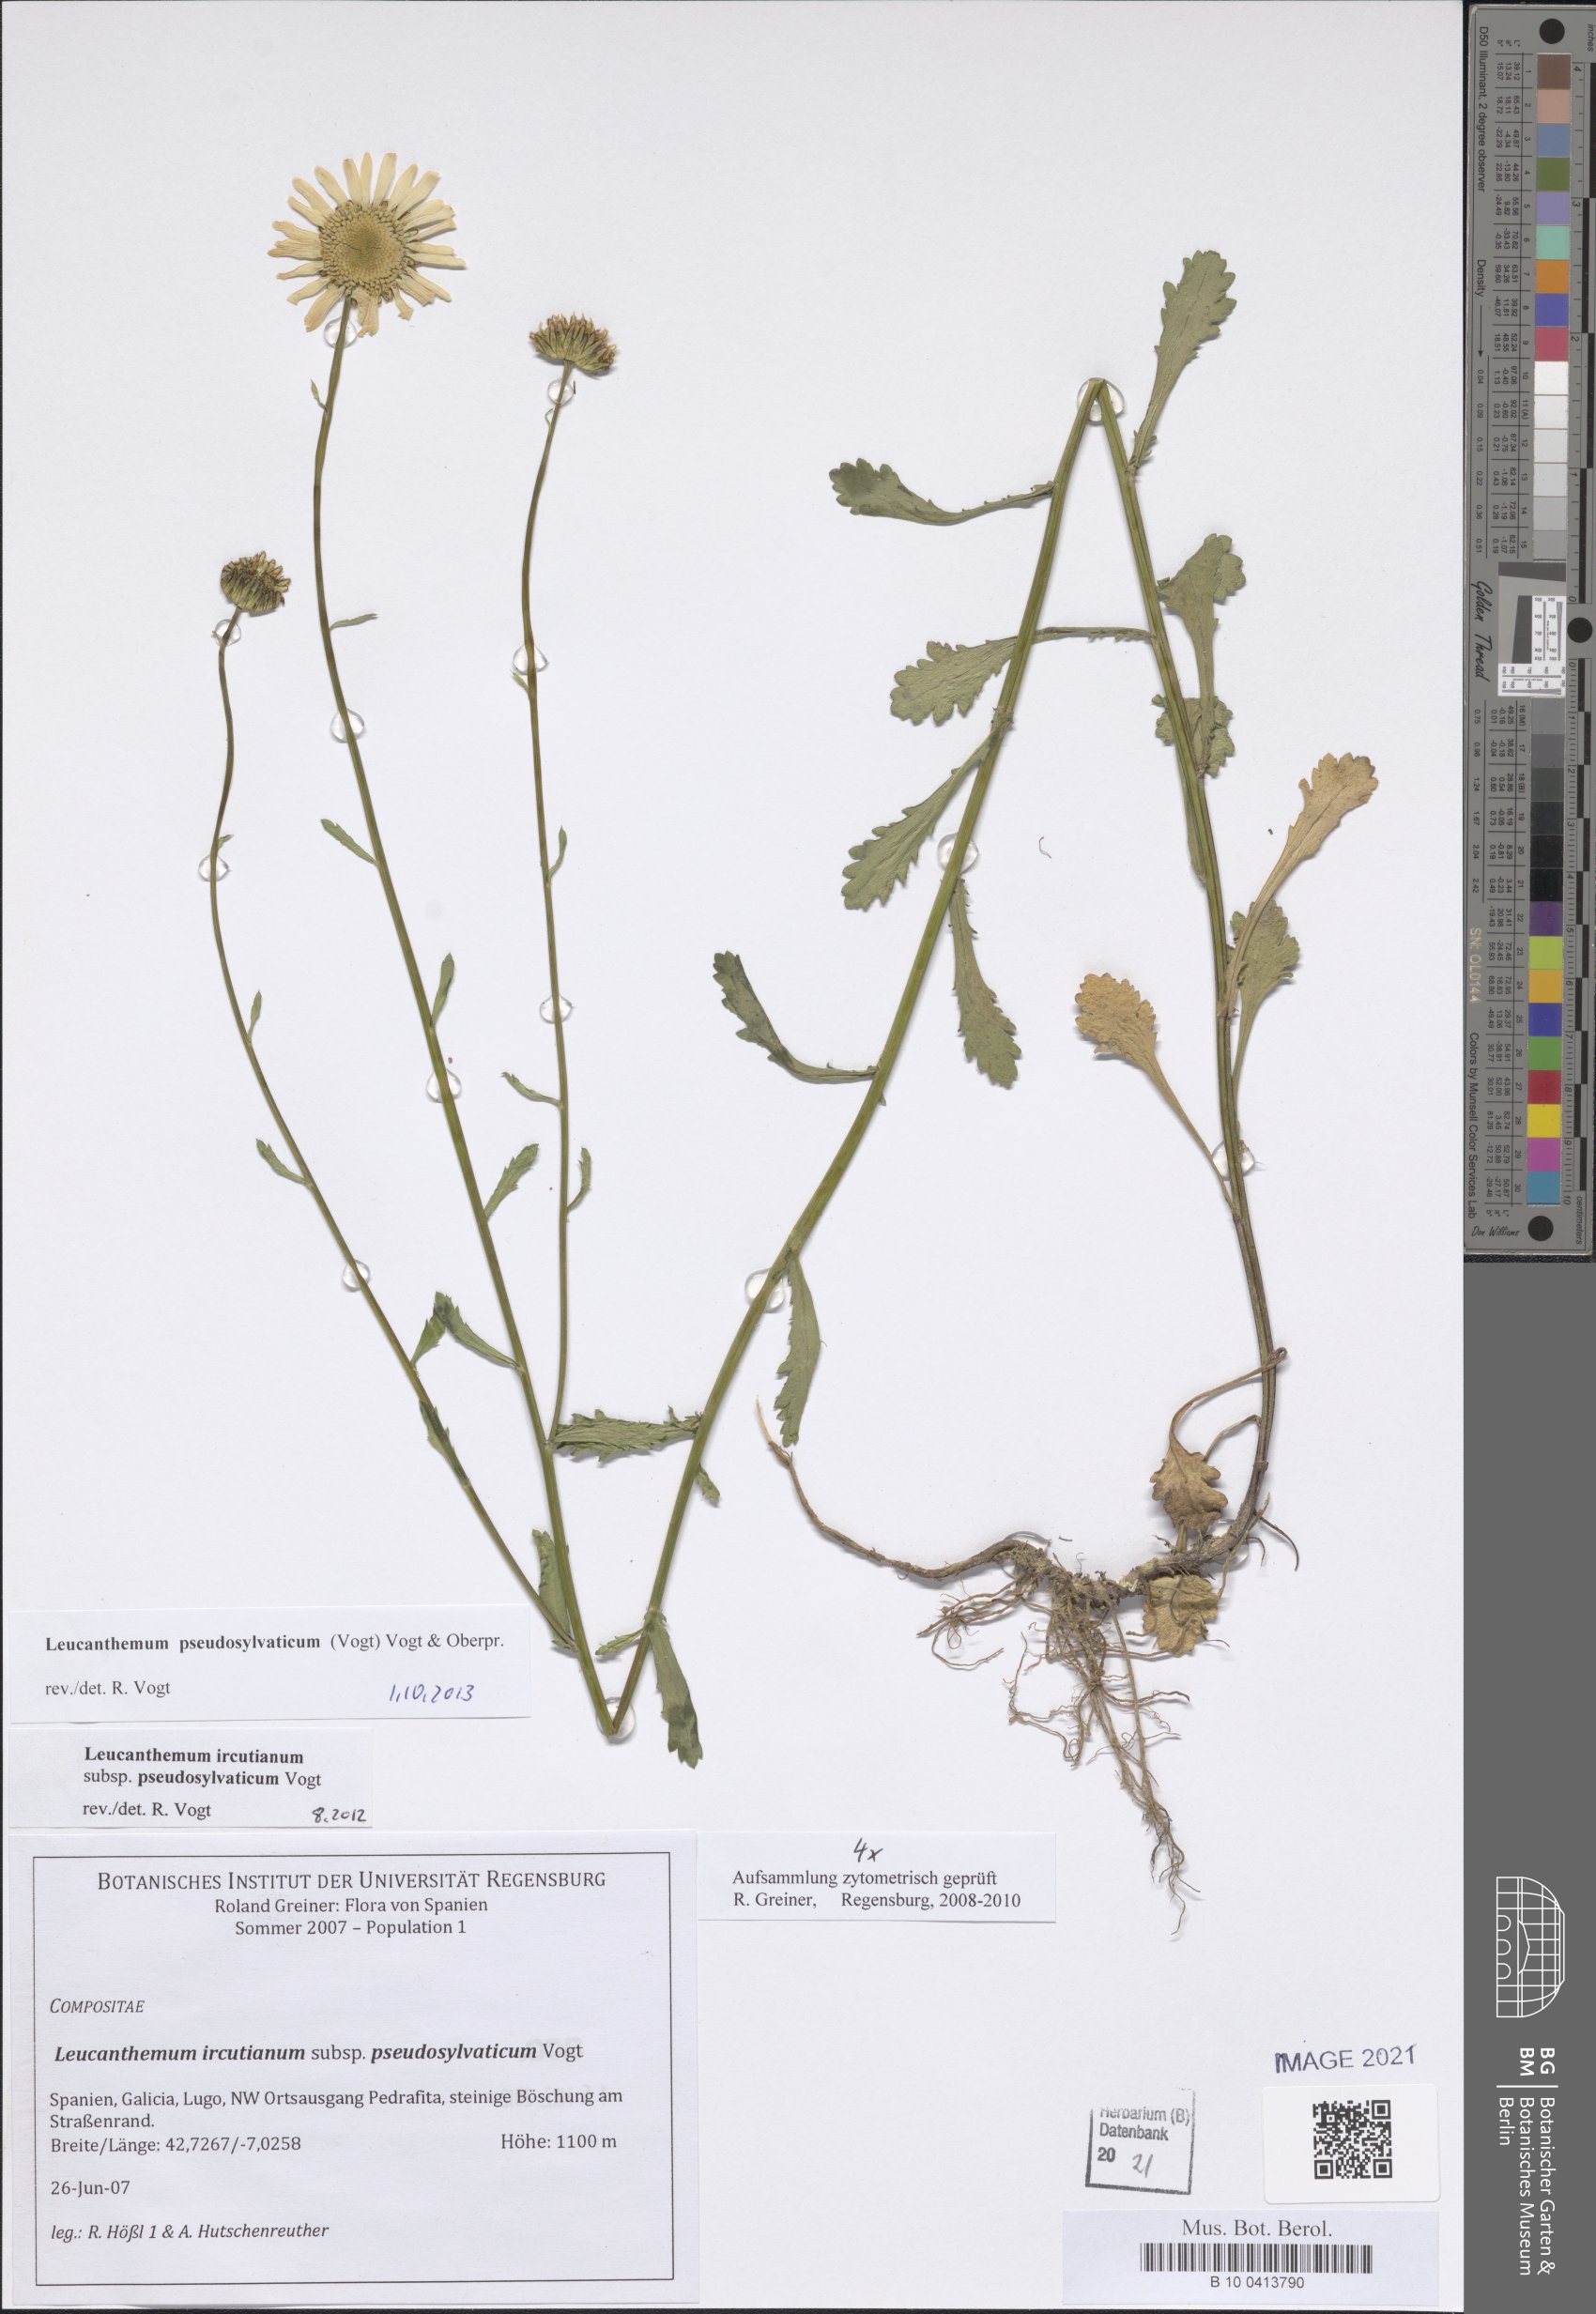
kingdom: Plantae
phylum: Tracheophyta
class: Magnoliopsida
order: Asterales
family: Asteraceae
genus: Leucanthemum
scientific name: Leucanthemum pseudosylvaticum
